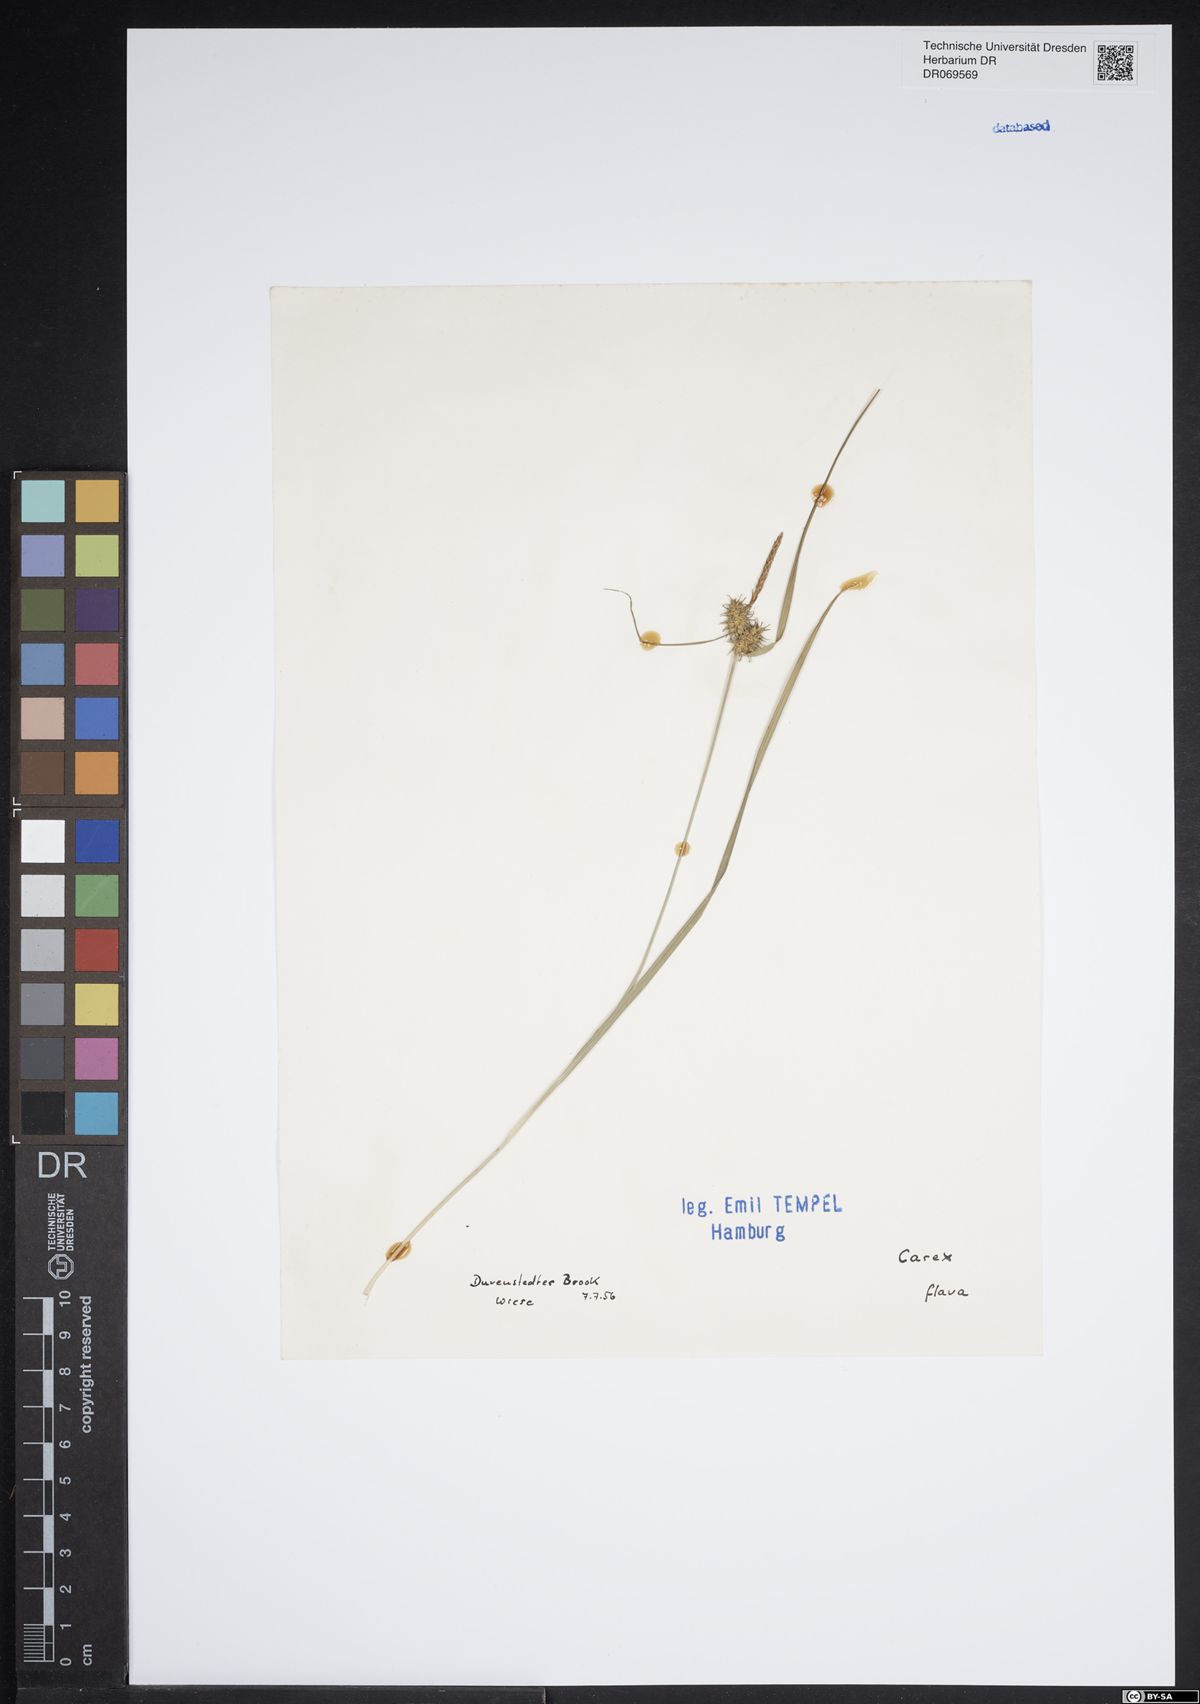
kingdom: Plantae
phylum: Tracheophyta
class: Liliopsida
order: Poales
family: Cyperaceae
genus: Carex
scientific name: Carex flava
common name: Large yellow-sedge
